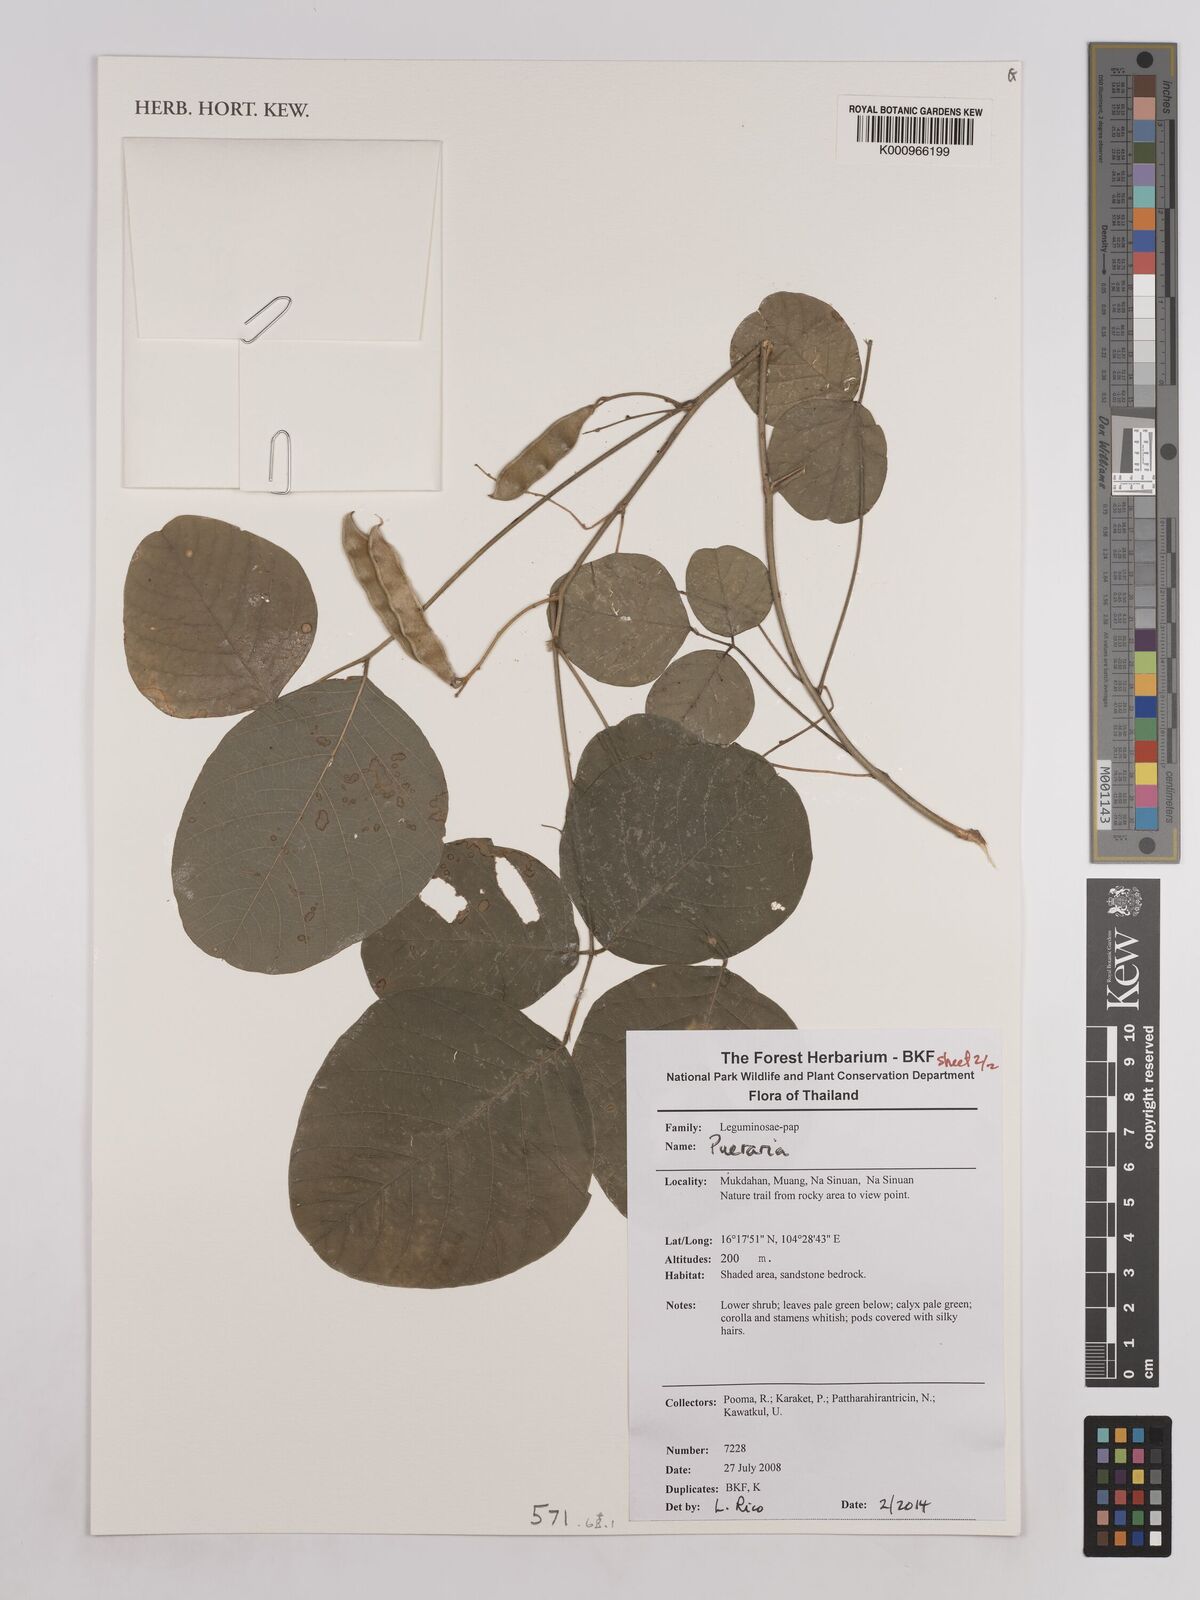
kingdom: Plantae
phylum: Tracheophyta
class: Magnoliopsida
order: Fabales
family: Fabaceae
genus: Pueraria
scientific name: Pueraria
